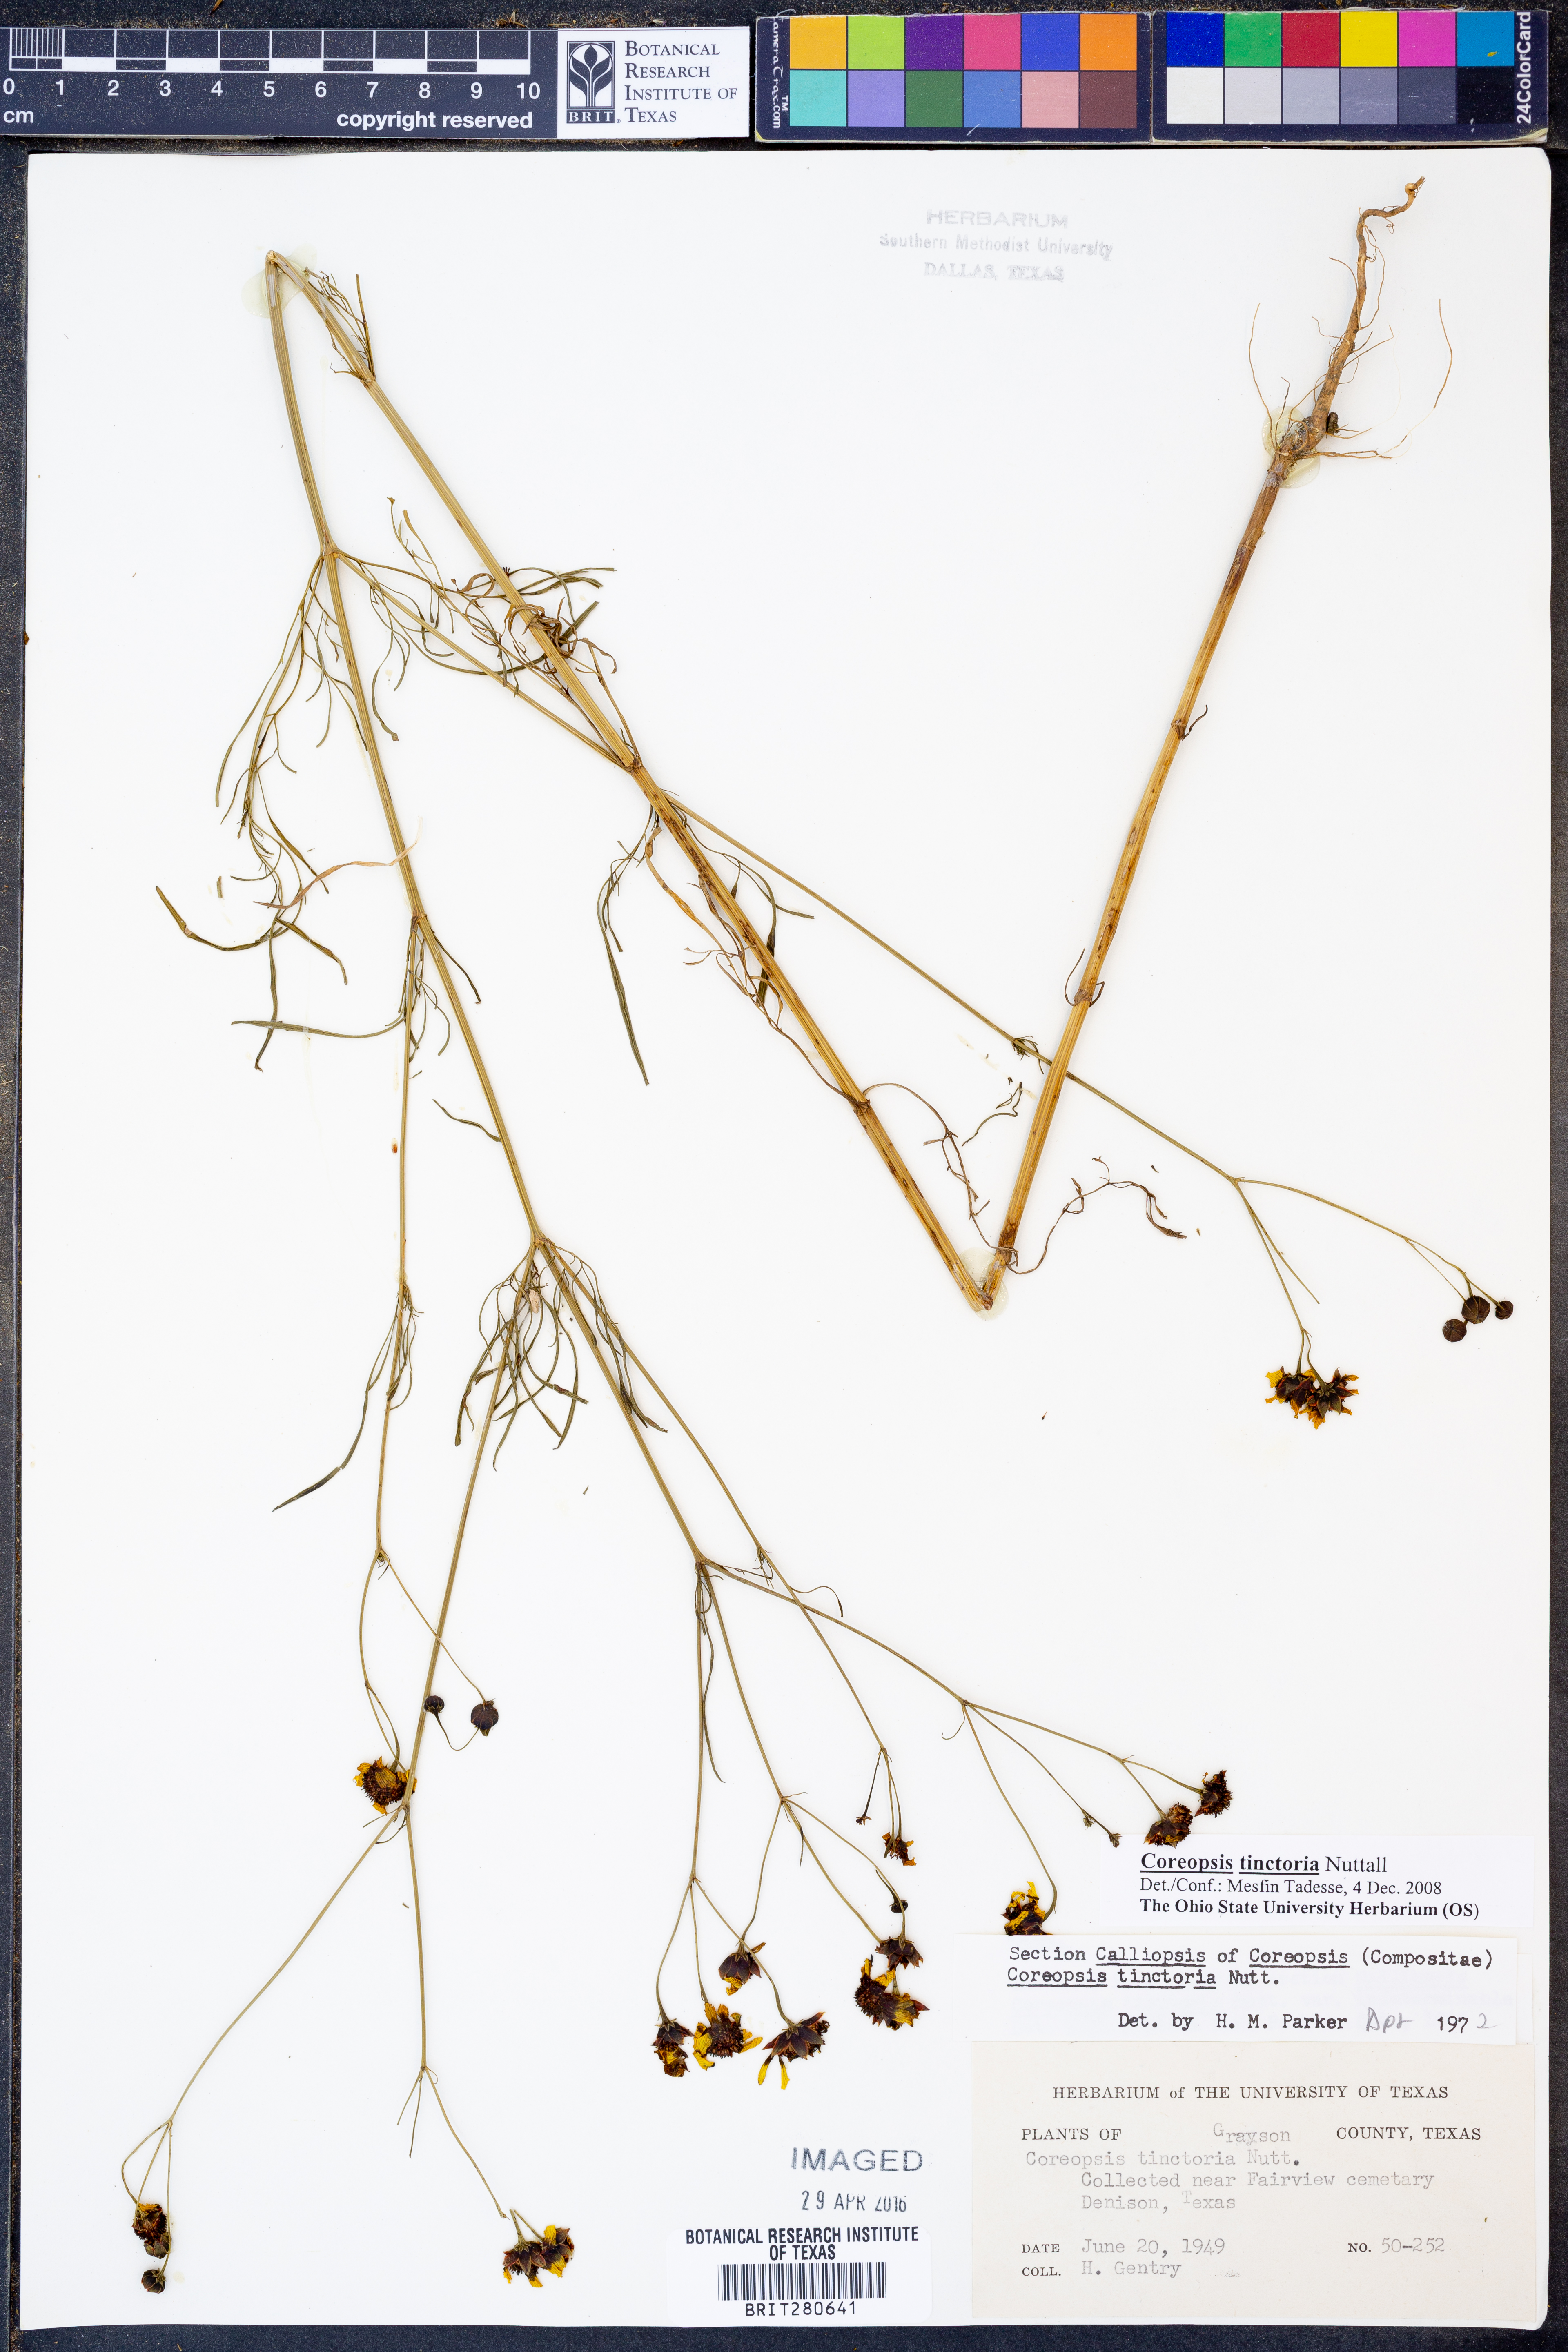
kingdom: Plantae
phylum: Tracheophyta
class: Magnoliopsida
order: Asterales
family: Asteraceae
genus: Coreopsis
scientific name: Coreopsis tinctoria
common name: Garden tickseed
